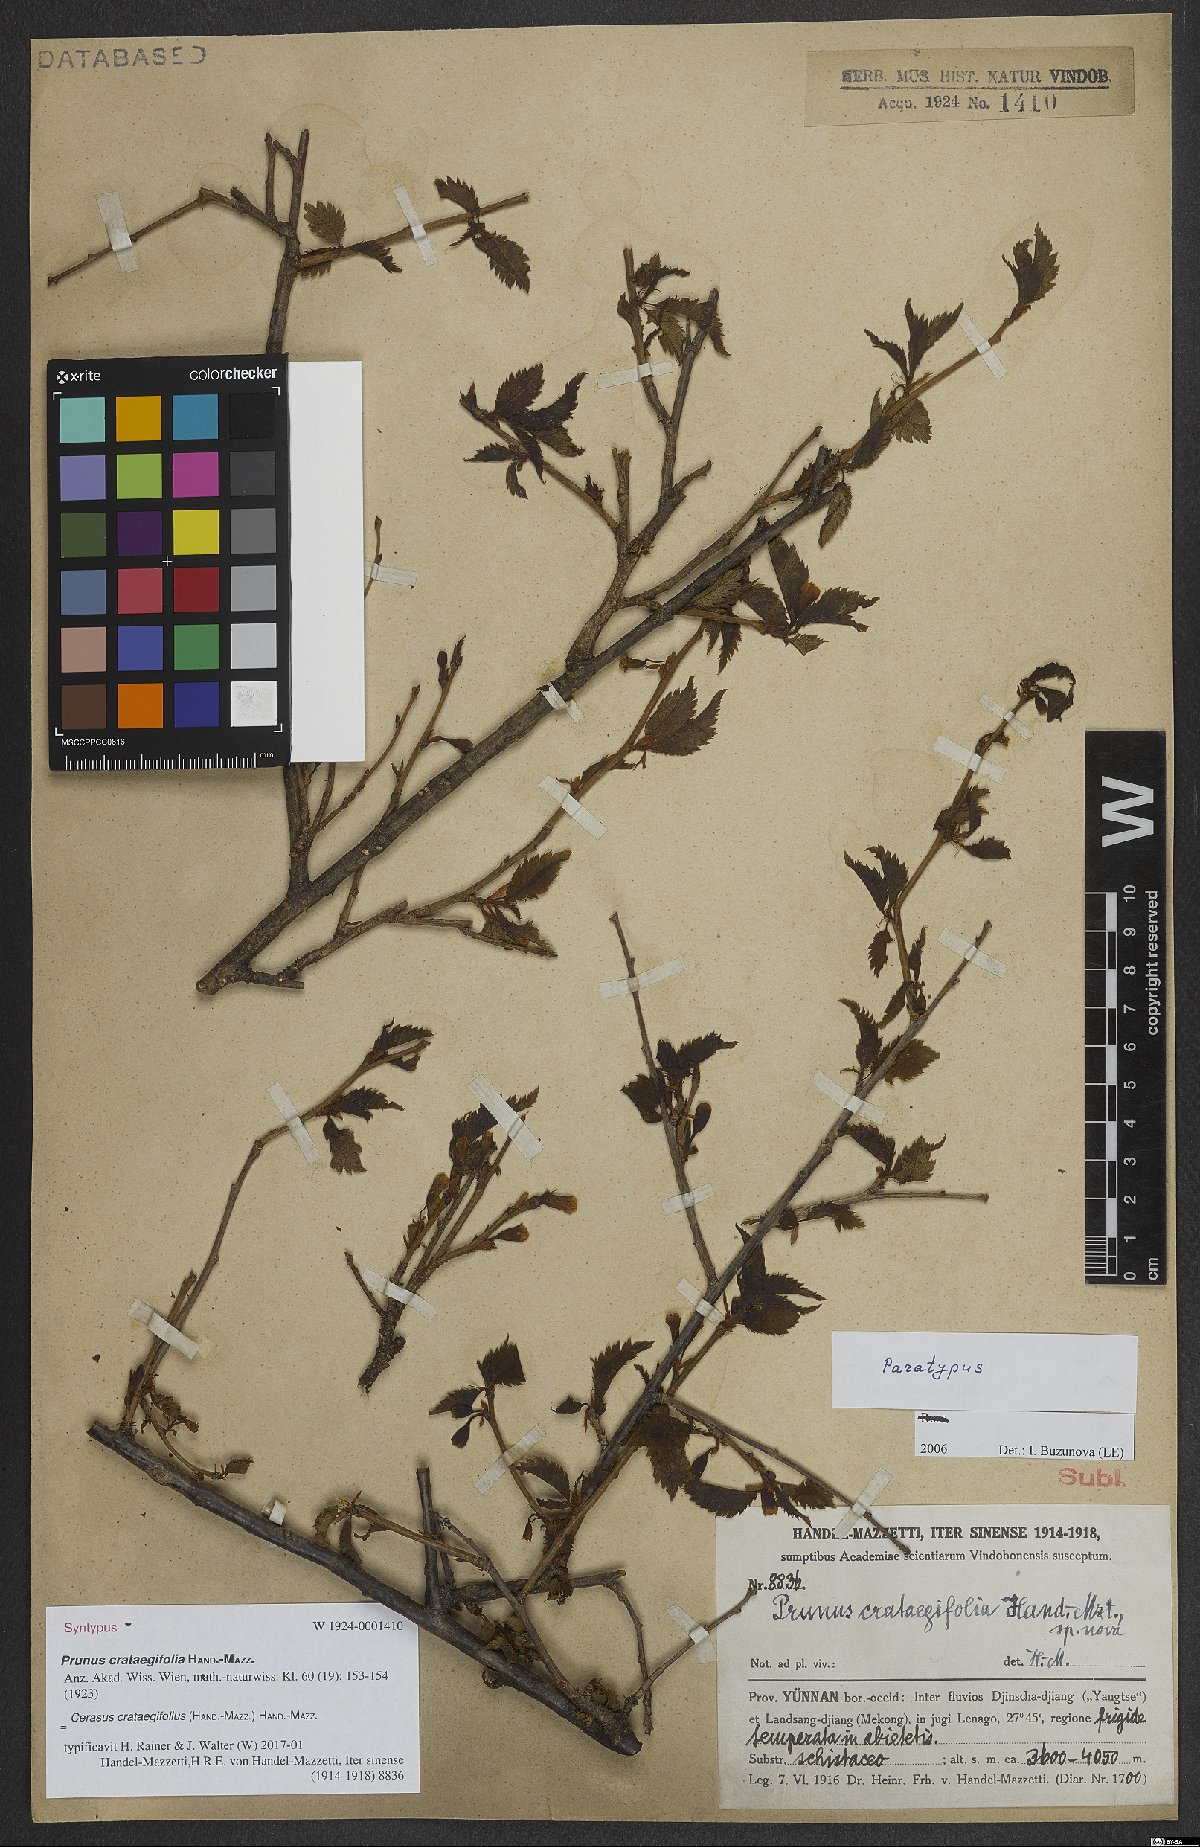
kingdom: Plantae
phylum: Tracheophyta
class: Magnoliopsida
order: Rosales
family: Rosaceae
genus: Prunus
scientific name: Prunus crataegifolia
